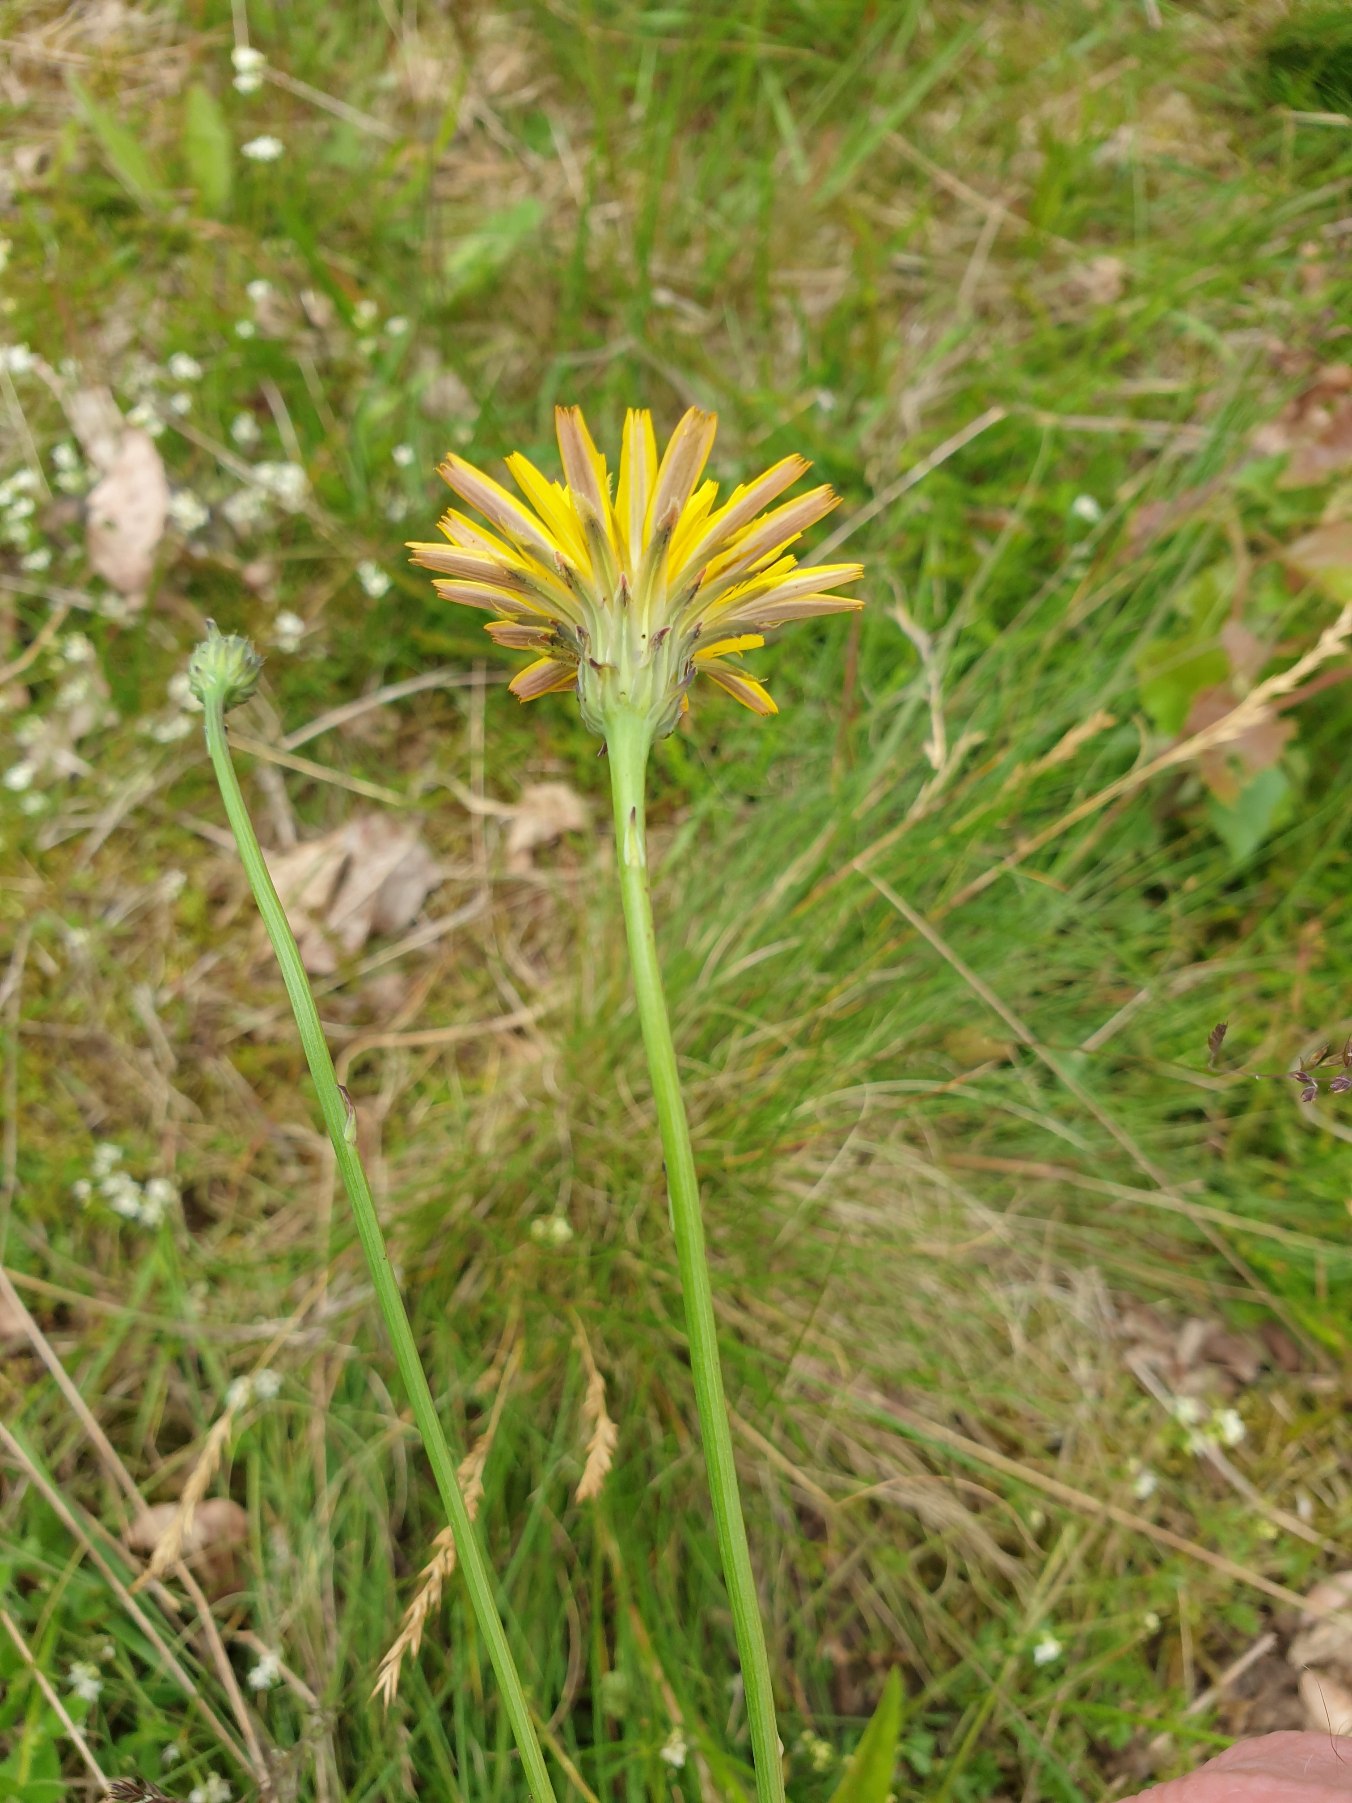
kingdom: Plantae
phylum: Tracheophyta
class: Magnoliopsida
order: Asterales
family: Asteraceae
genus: Hypochaeris
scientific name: Hypochaeris radicata
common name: Almindelig kongepen
